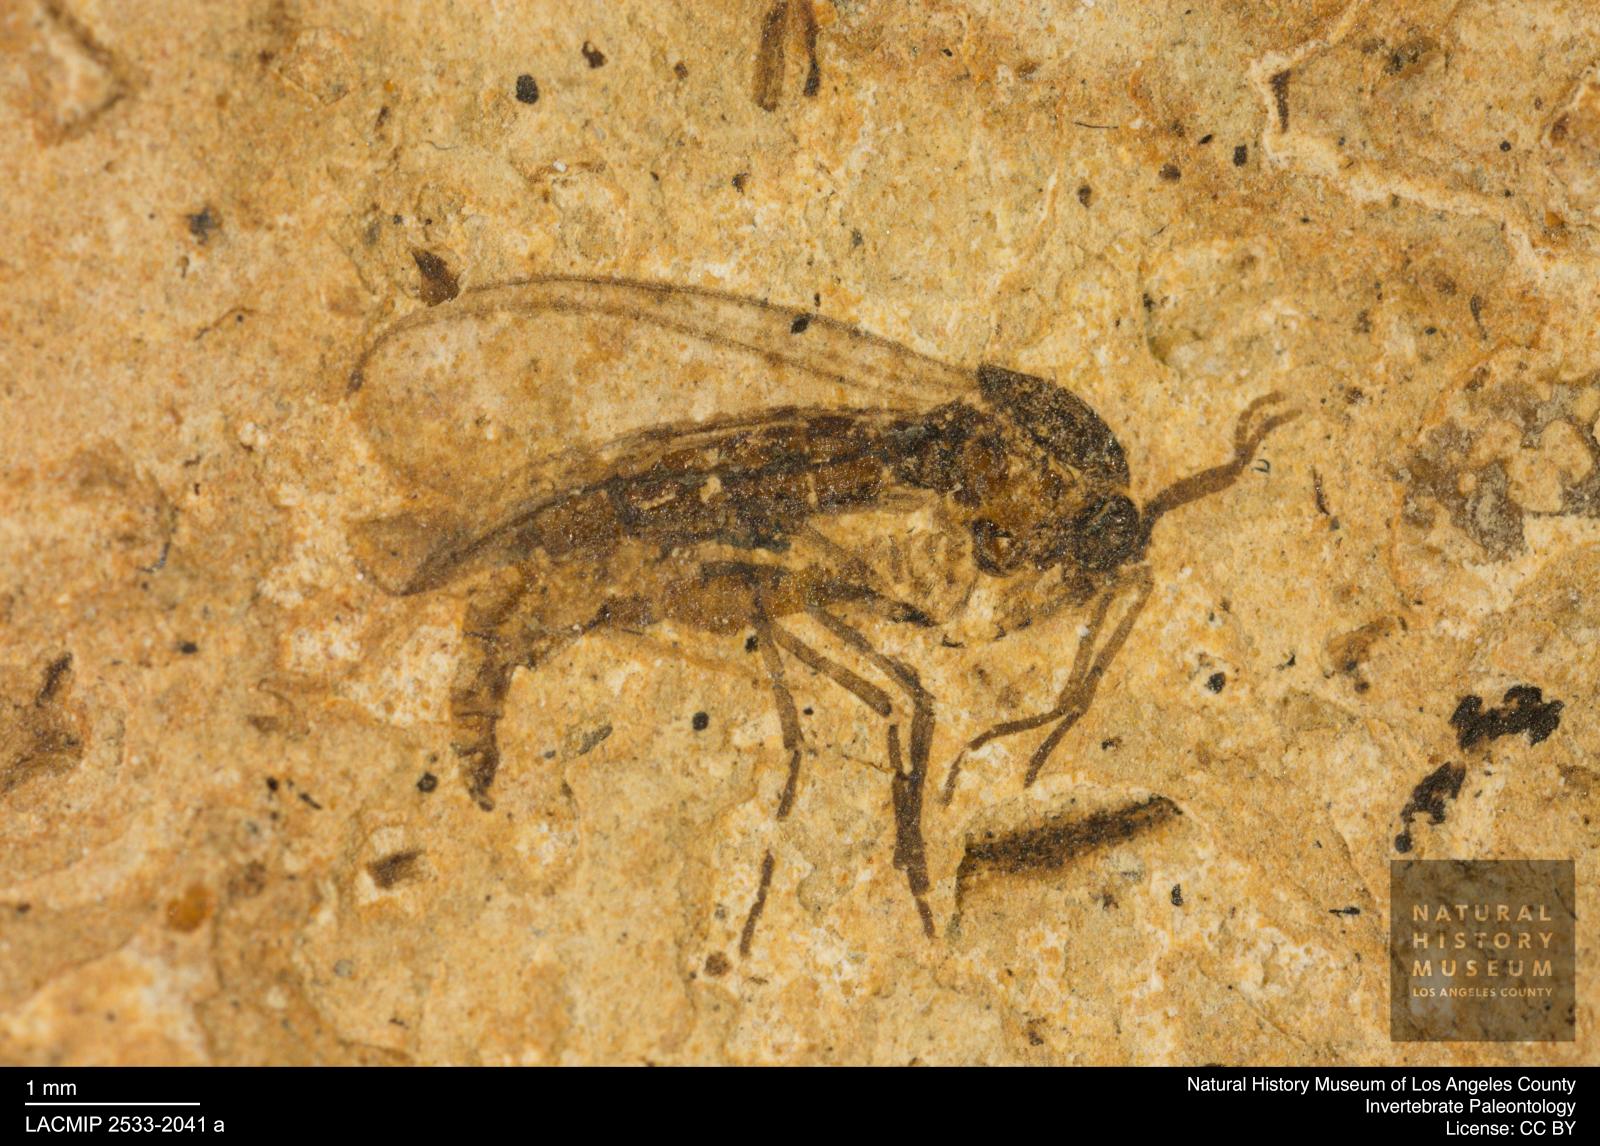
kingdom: Animalia
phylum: Arthropoda
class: Insecta
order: Diptera
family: Sciaridae
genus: Sciara
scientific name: Sciara heydeni
